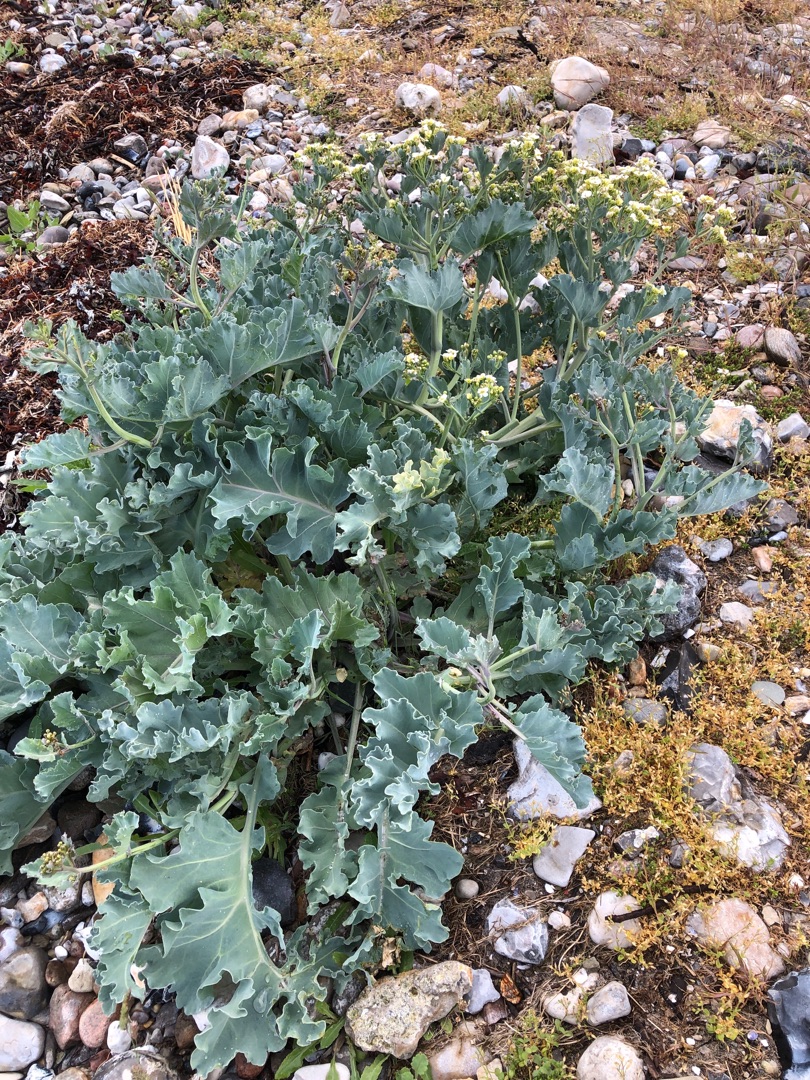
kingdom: Plantae
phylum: Tracheophyta
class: Magnoliopsida
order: Brassicales
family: Brassicaceae
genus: Crambe
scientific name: Crambe maritima
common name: Strandkål
